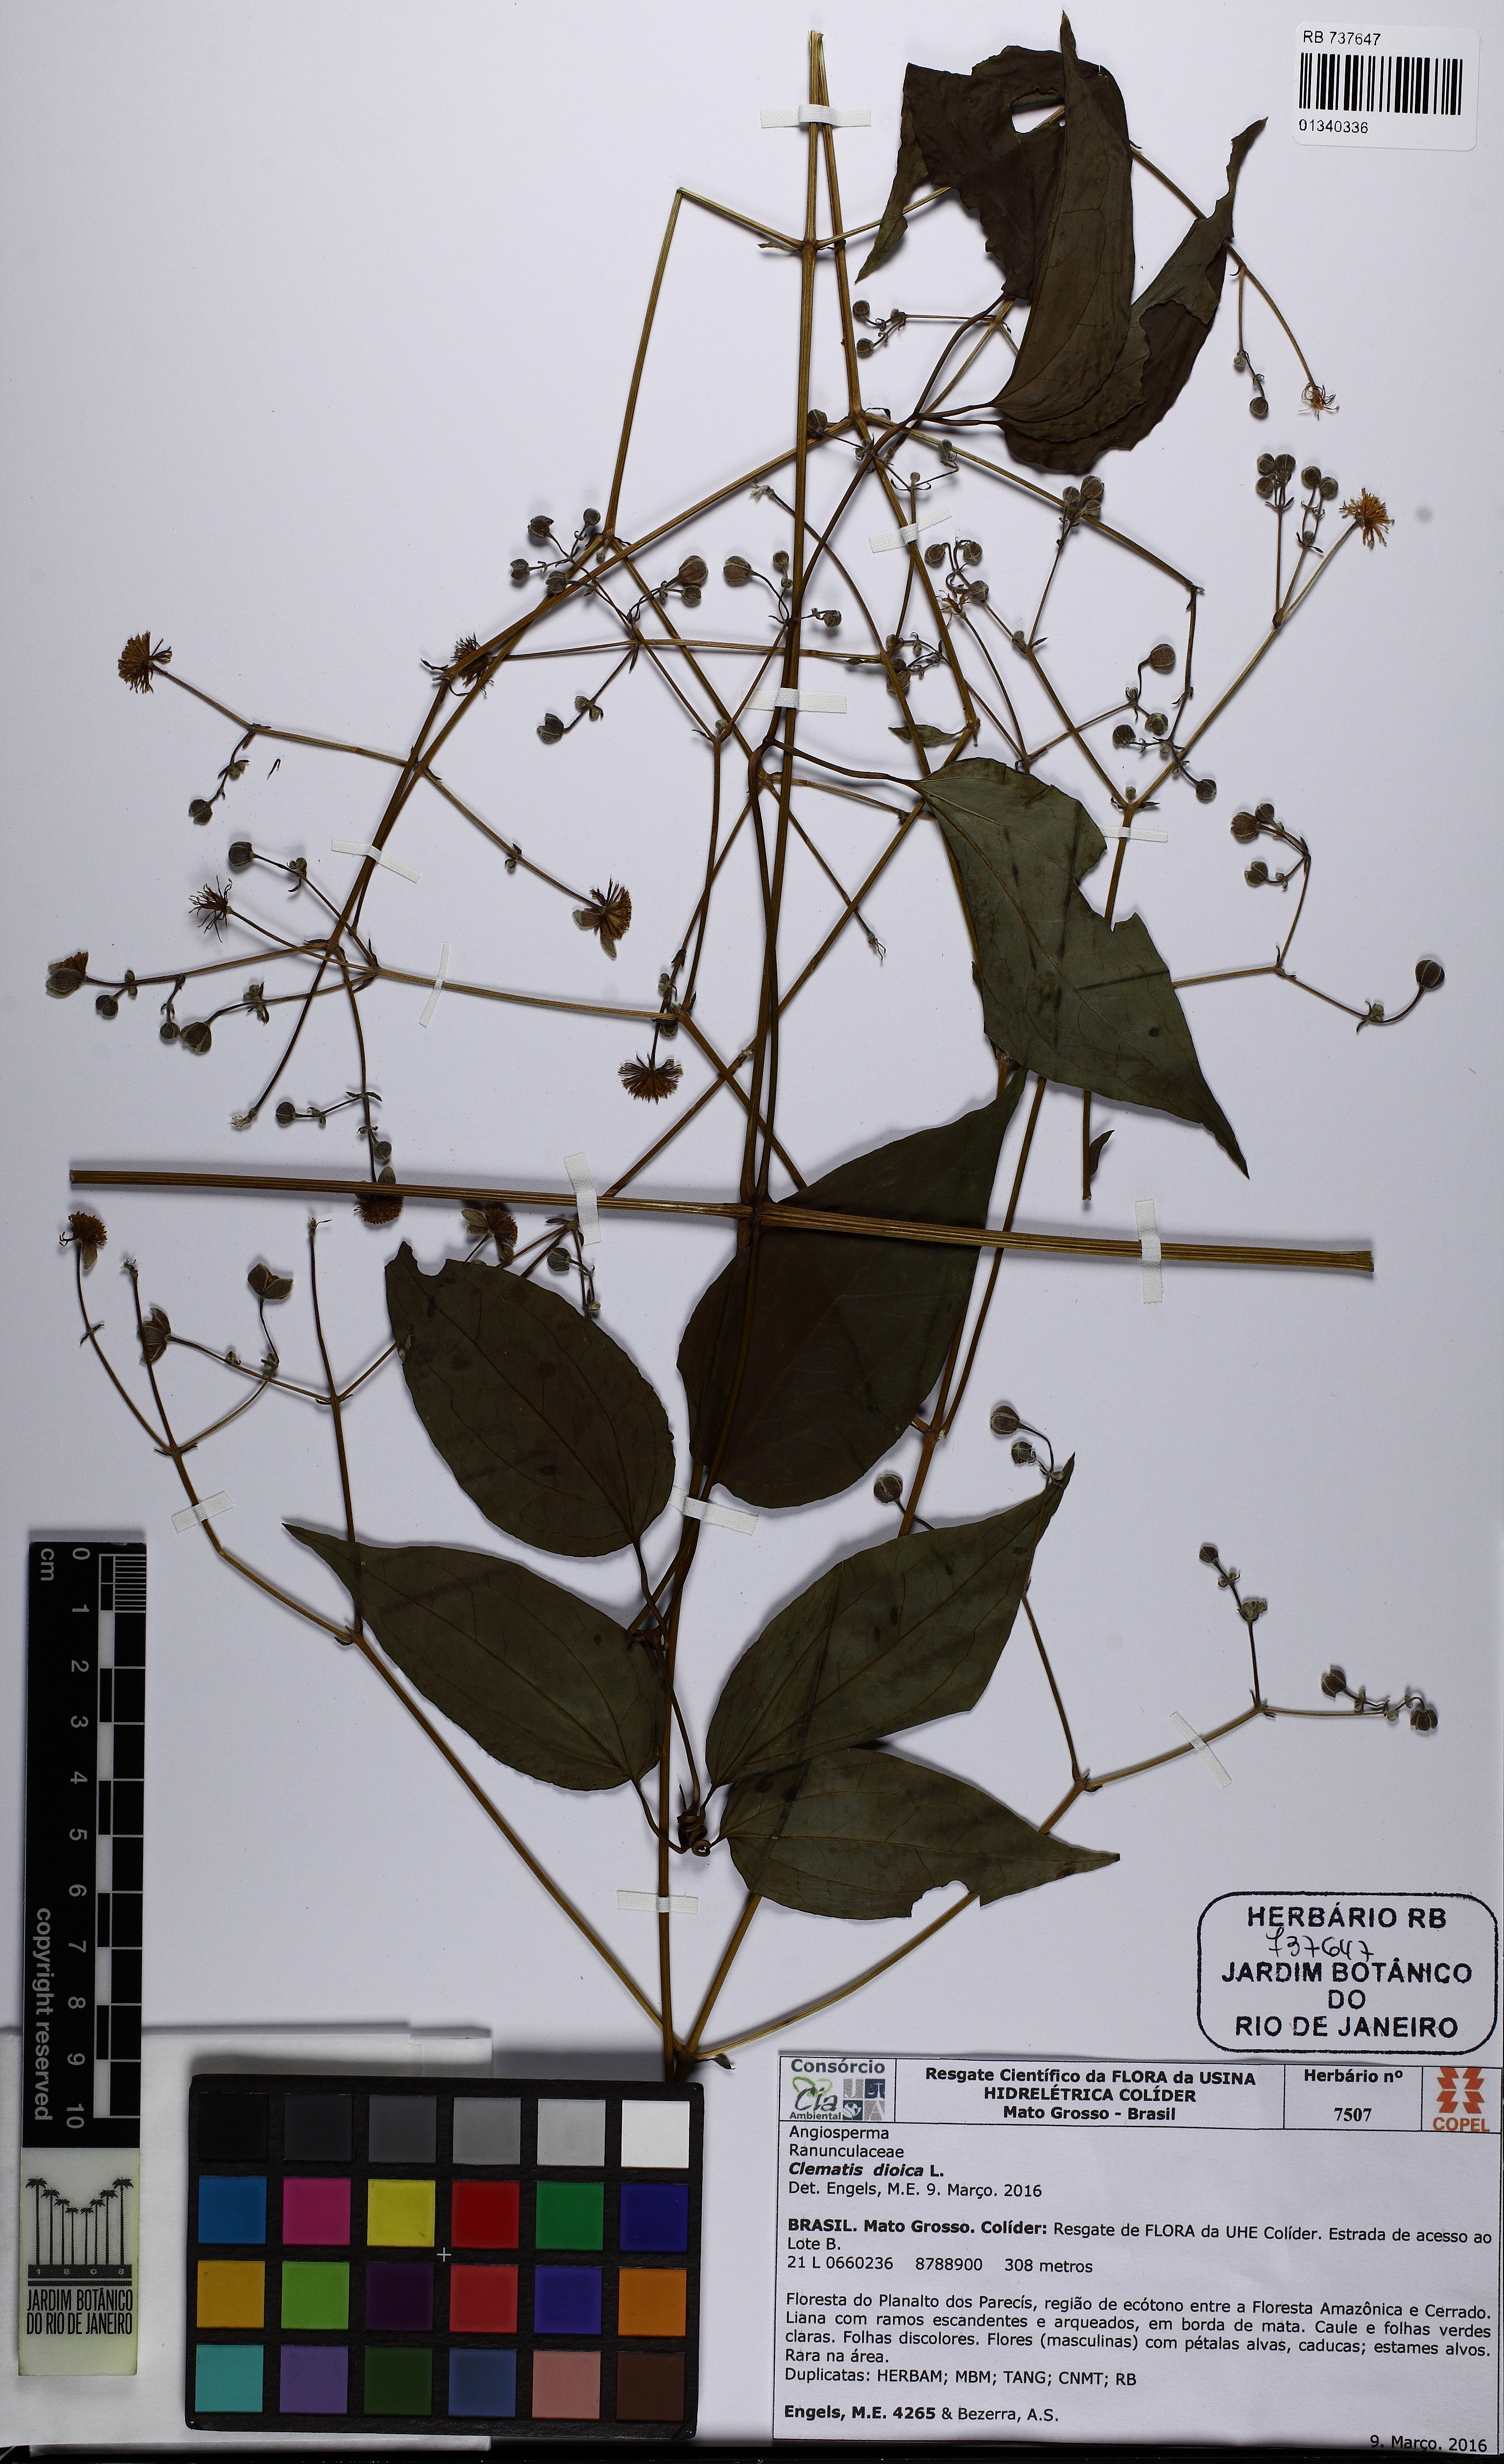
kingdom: Plantae
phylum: Tracheophyta
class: Magnoliopsida
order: Ranunculales
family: Ranunculaceae
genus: Clematis
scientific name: Clematis guadeloupae
